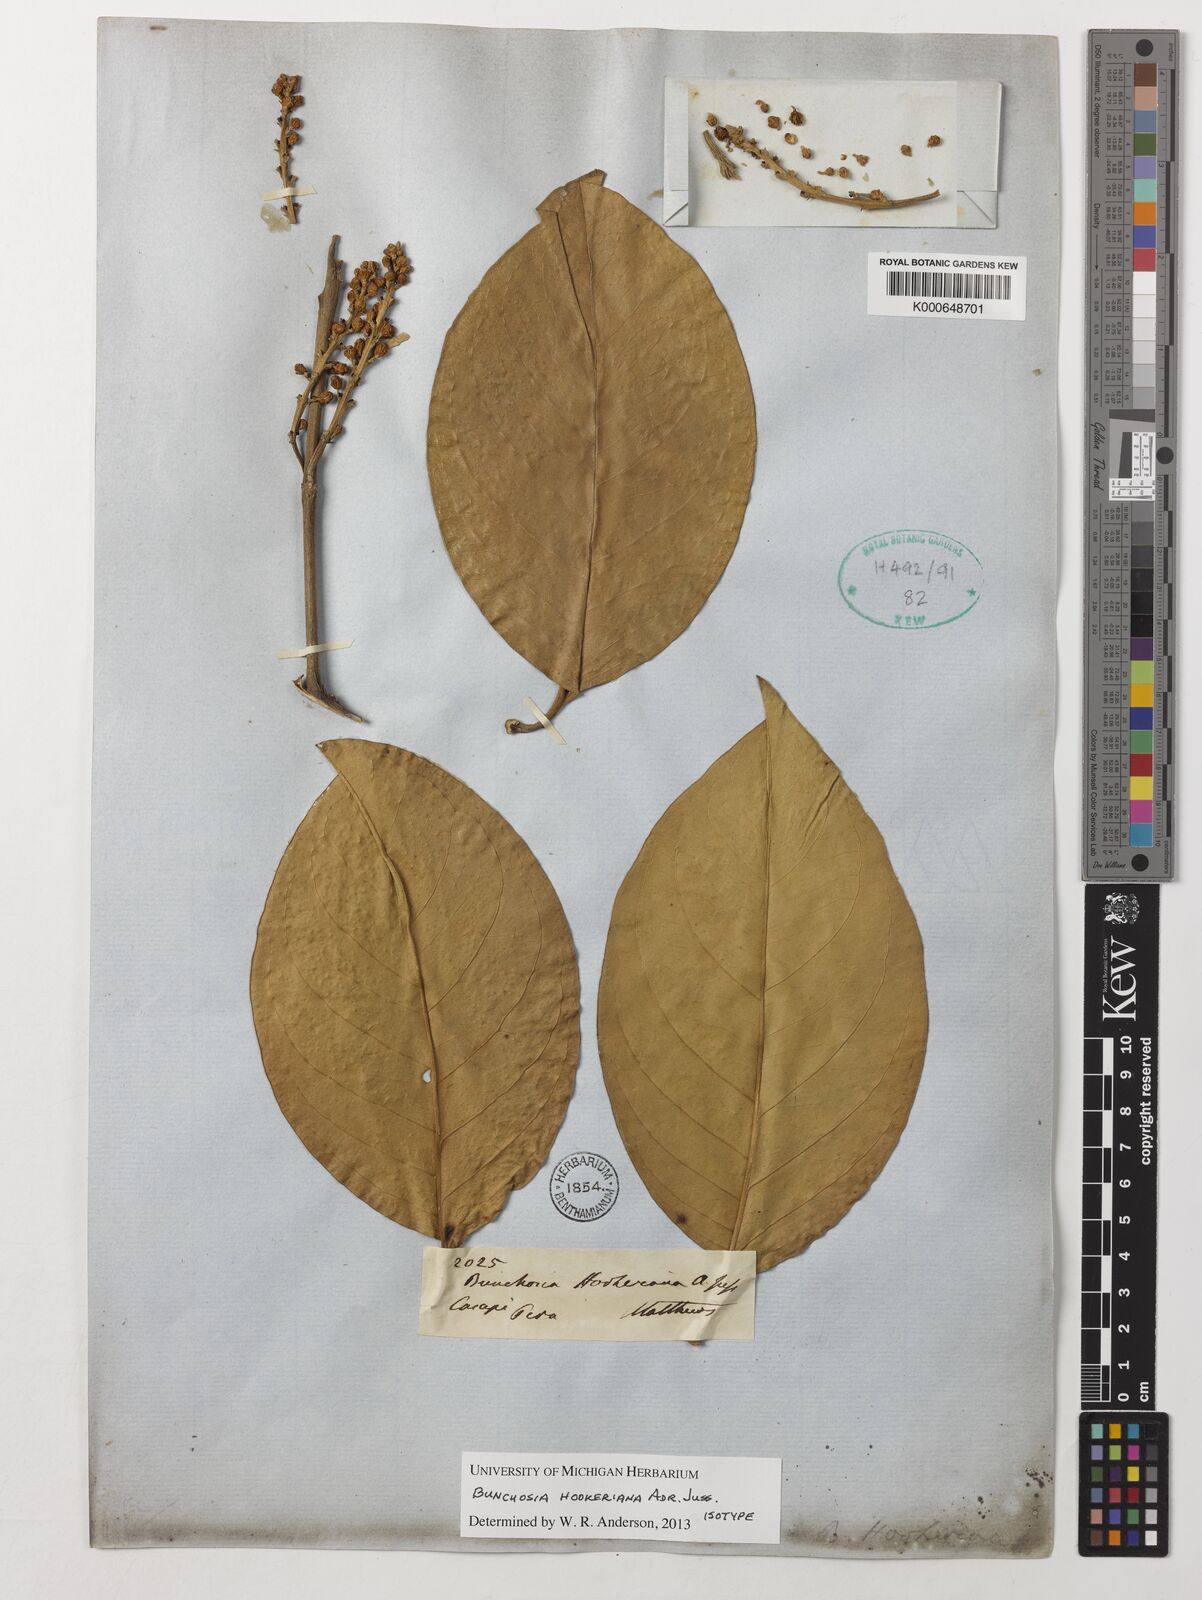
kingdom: Plantae
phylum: Tracheophyta
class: Magnoliopsida
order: Malpighiales
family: Malpighiaceae
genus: Bunchosia
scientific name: Bunchosia hookeriana
